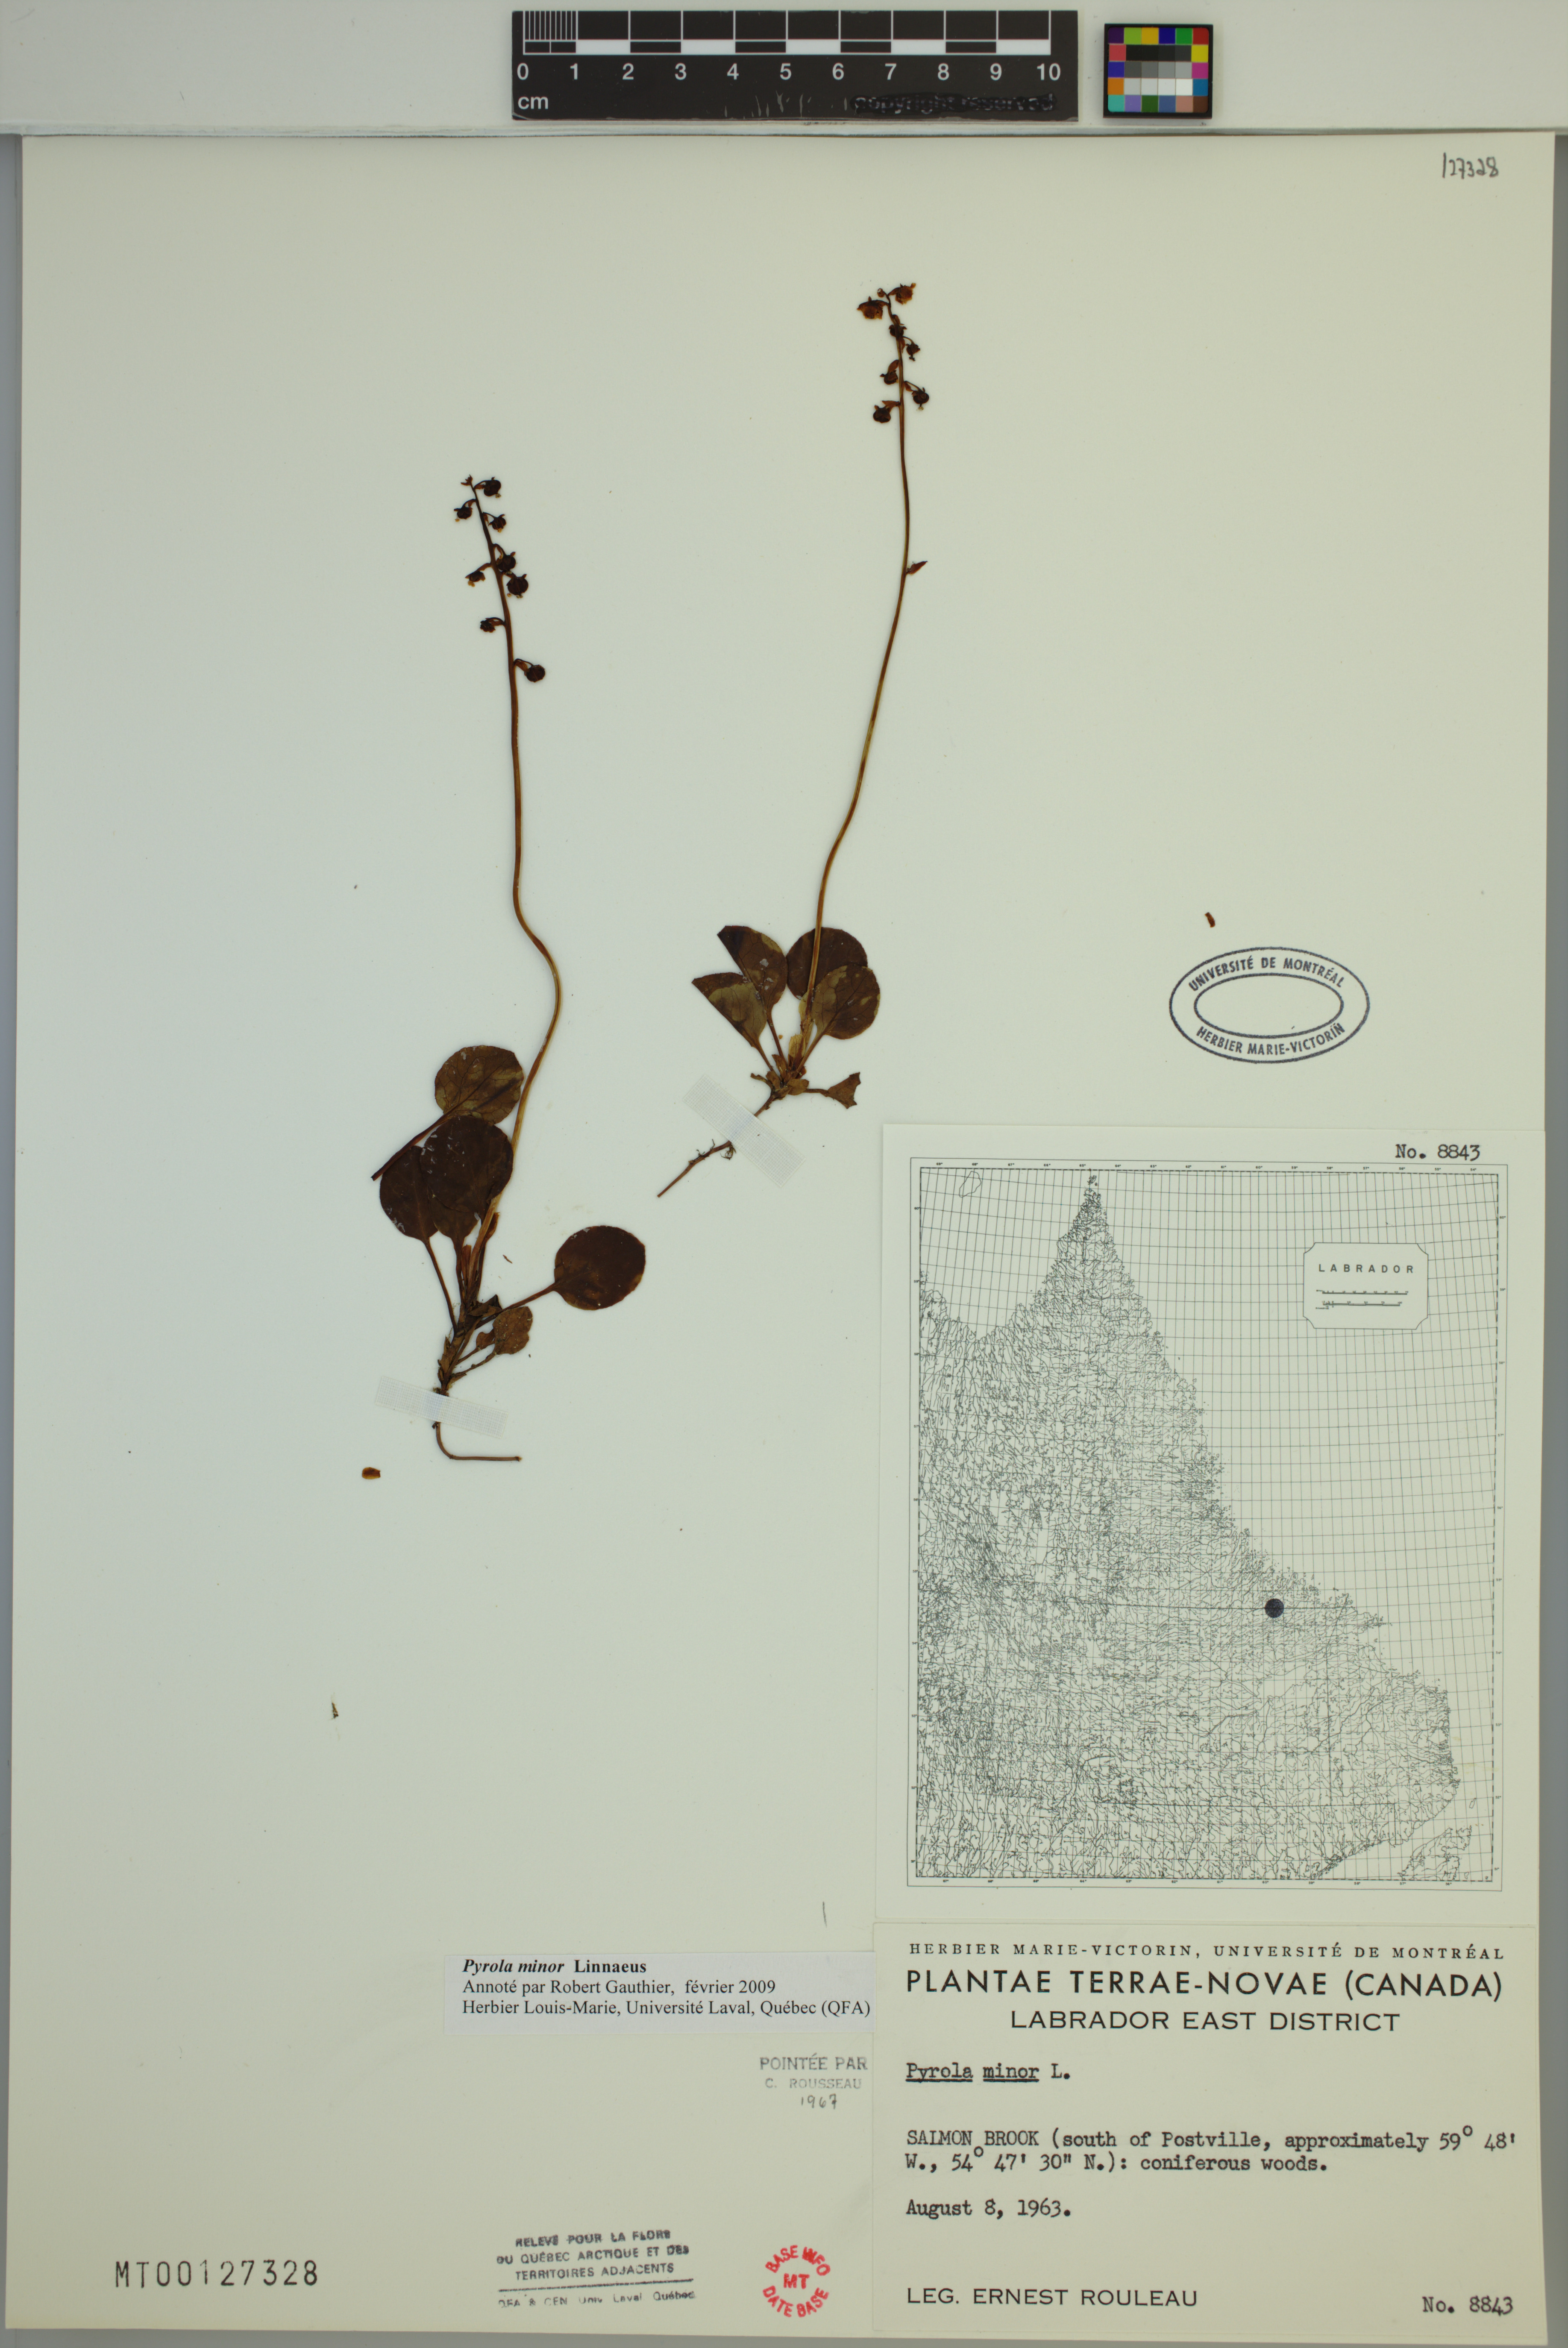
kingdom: Plantae
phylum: Tracheophyta
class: Magnoliopsida
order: Ericales
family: Ericaceae
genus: Pyrola
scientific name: Pyrola minor
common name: Common wintergreen
